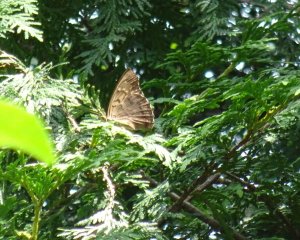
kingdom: Animalia
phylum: Arthropoda
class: Insecta
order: Lepidoptera
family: Nymphalidae
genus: Asterocampa
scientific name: Asterocampa clyton
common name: Tawny Emperor
